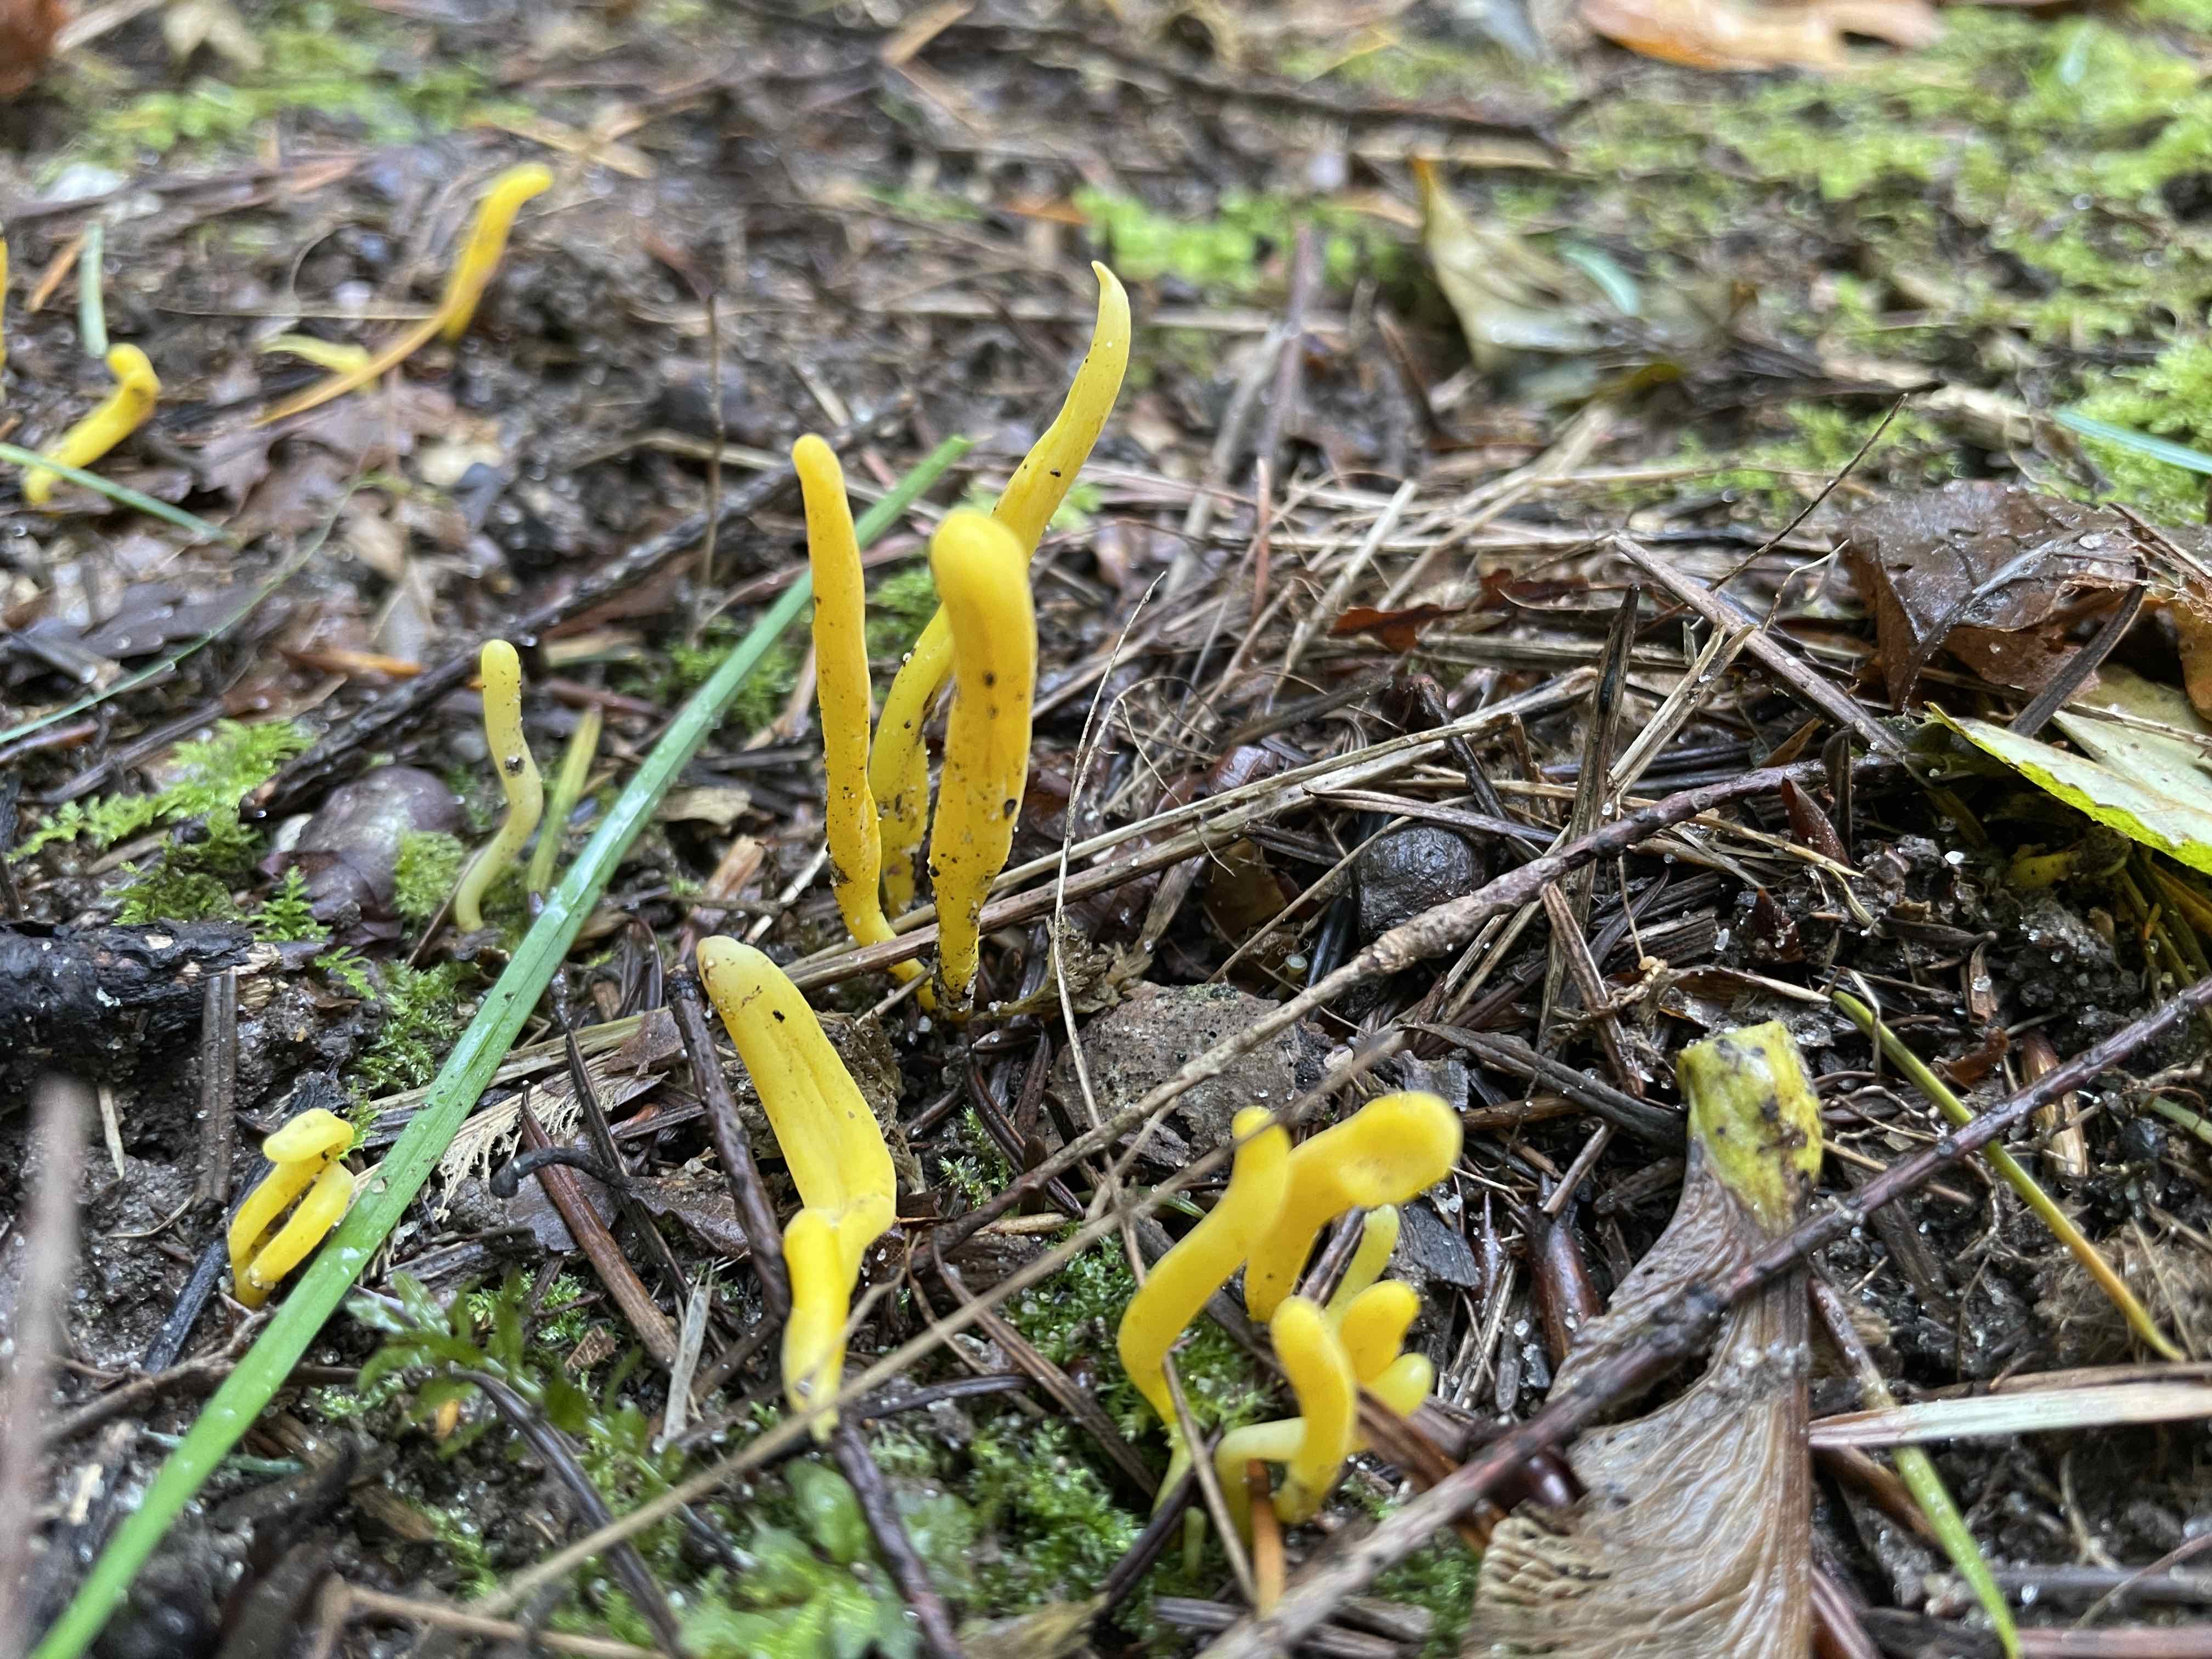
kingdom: Fungi
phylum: Basidiomycota
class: Agaricomycetes
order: Agaricales
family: Clavariaceae
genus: Clavulinopsis
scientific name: Clavulinopsis
